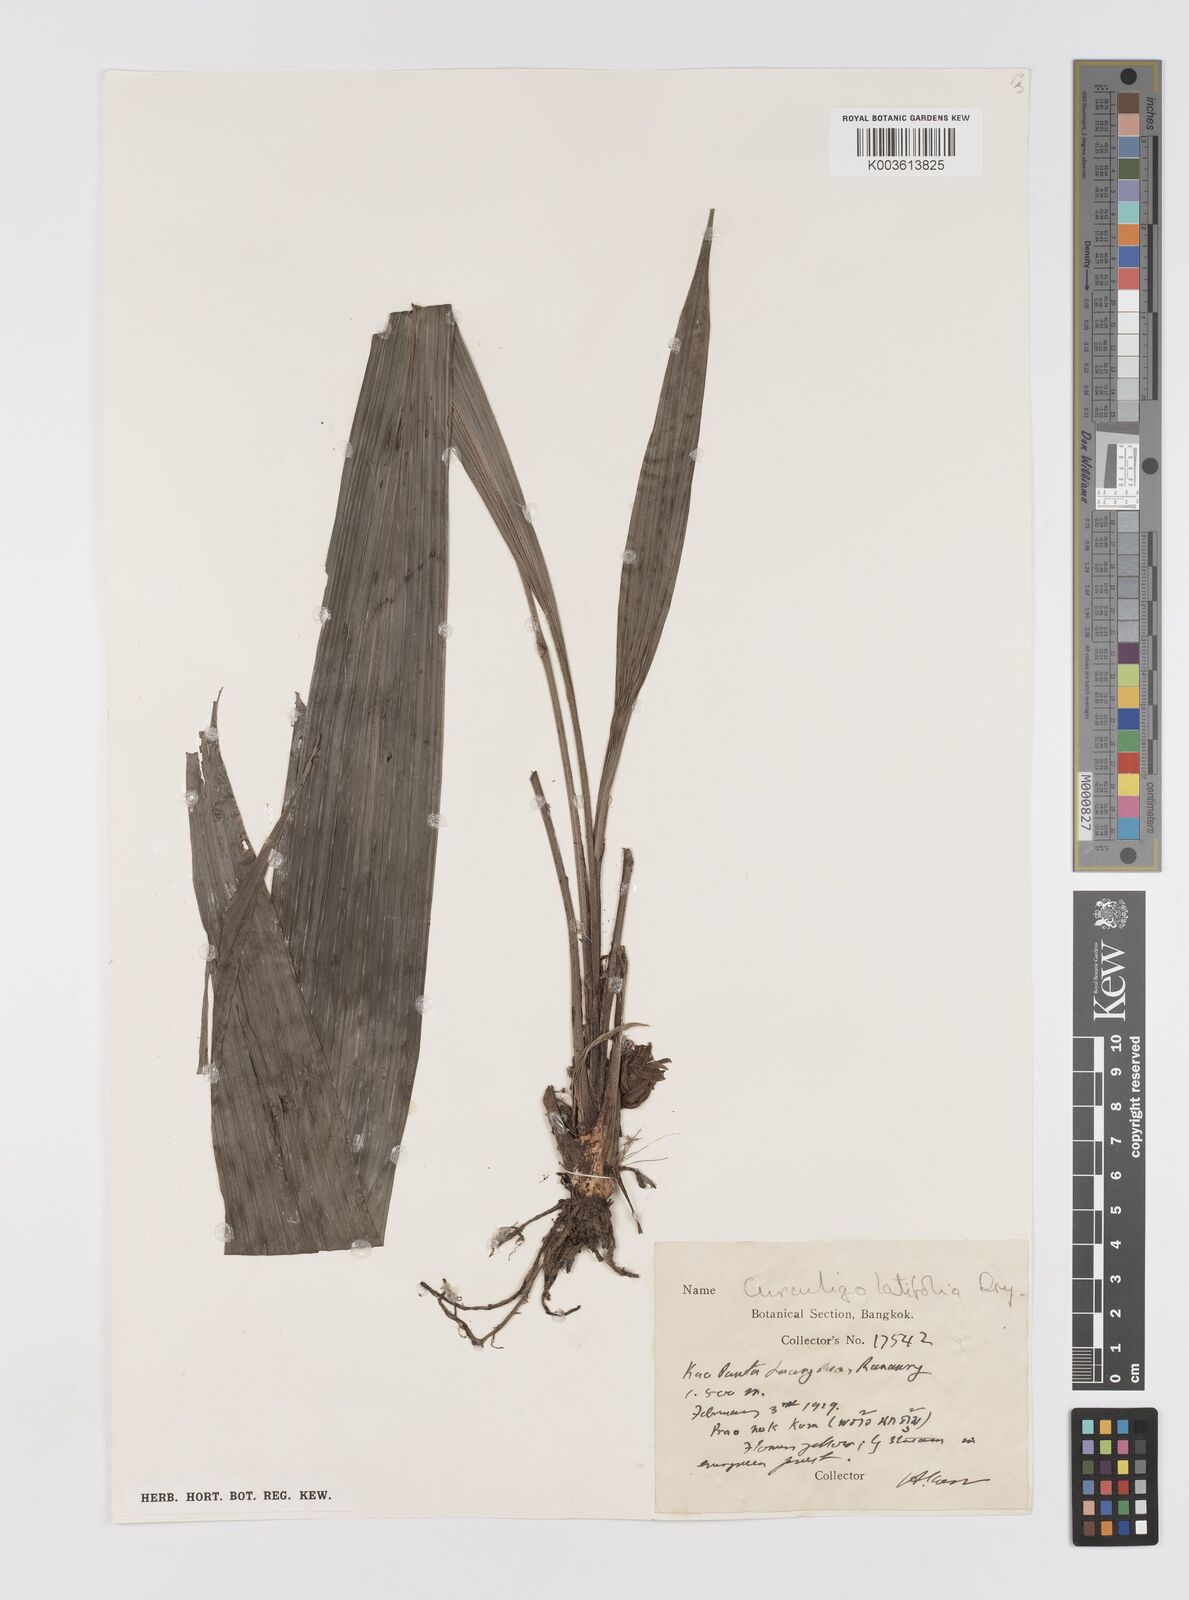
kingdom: Plantae
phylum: Tracheophyta
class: Liliopsida
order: Asparagales
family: Hypoxidaceae
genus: Curculigo
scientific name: Curculigo latifolia
